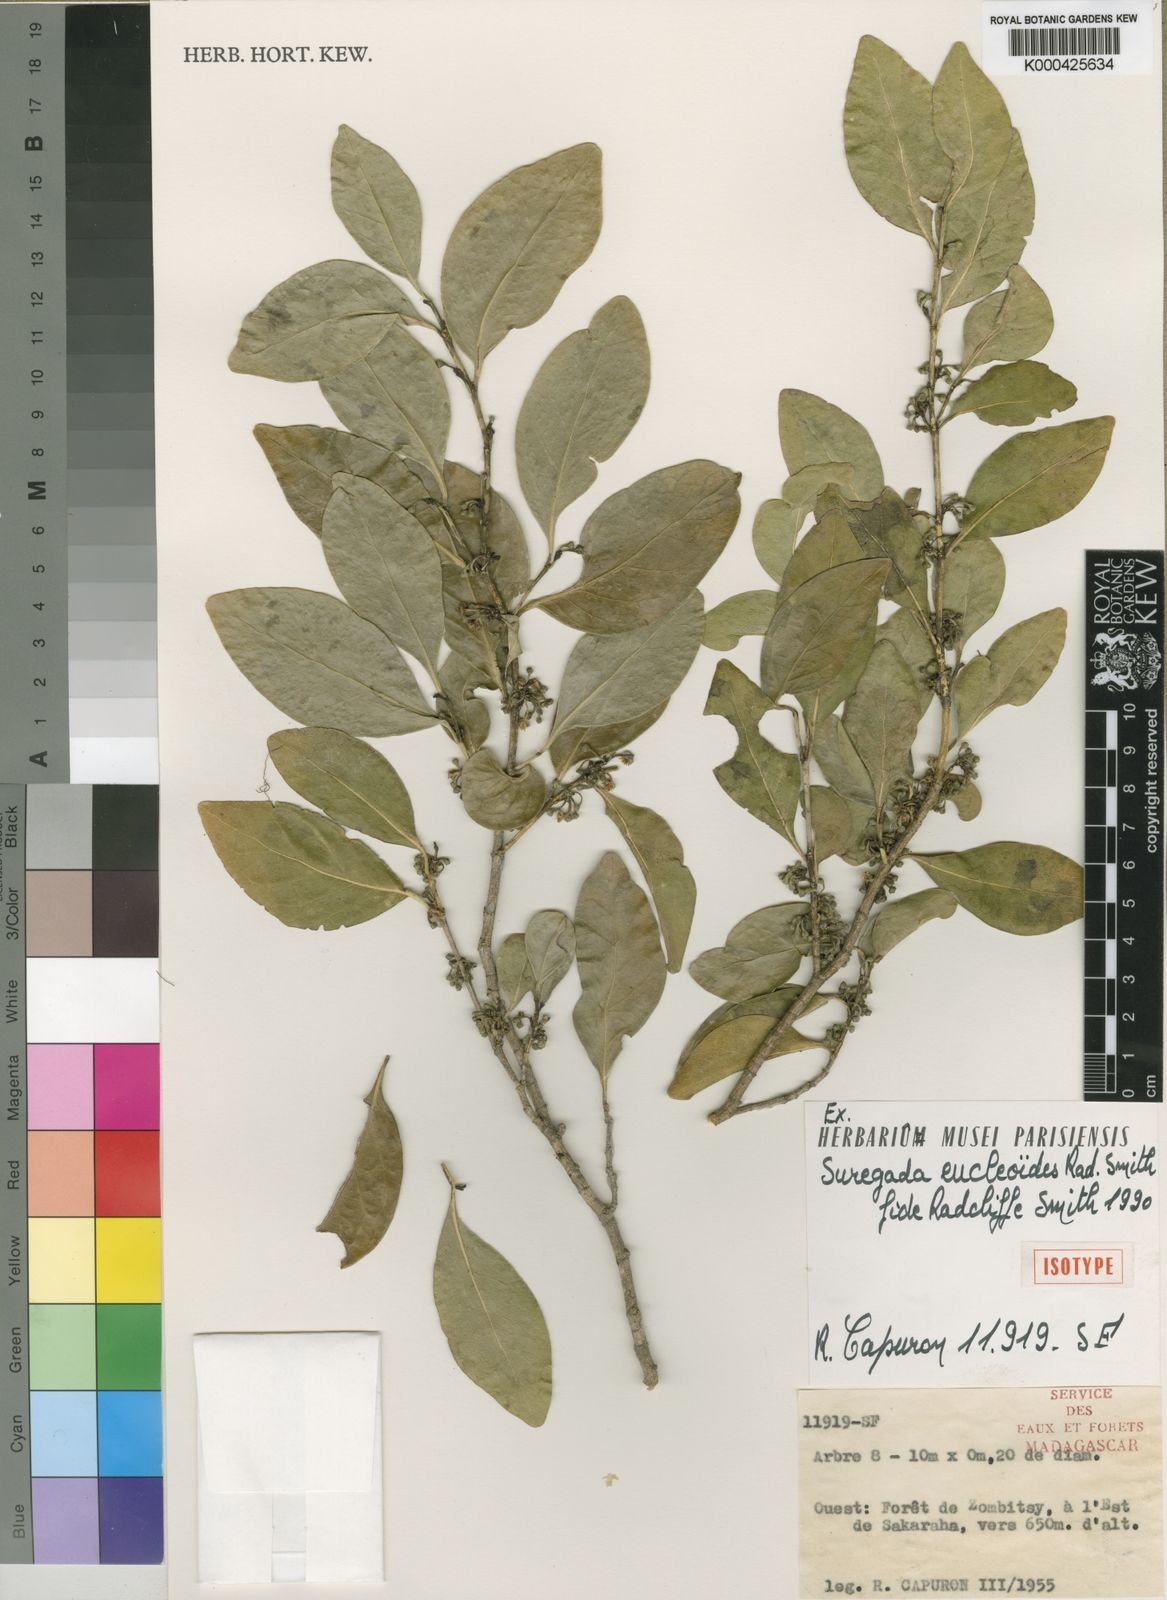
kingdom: Plantae
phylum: Tracheophyta
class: Magnoliopsida
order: Malpighiales
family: Euphorbiaceae
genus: Suregada
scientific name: Suregada eucleoides
